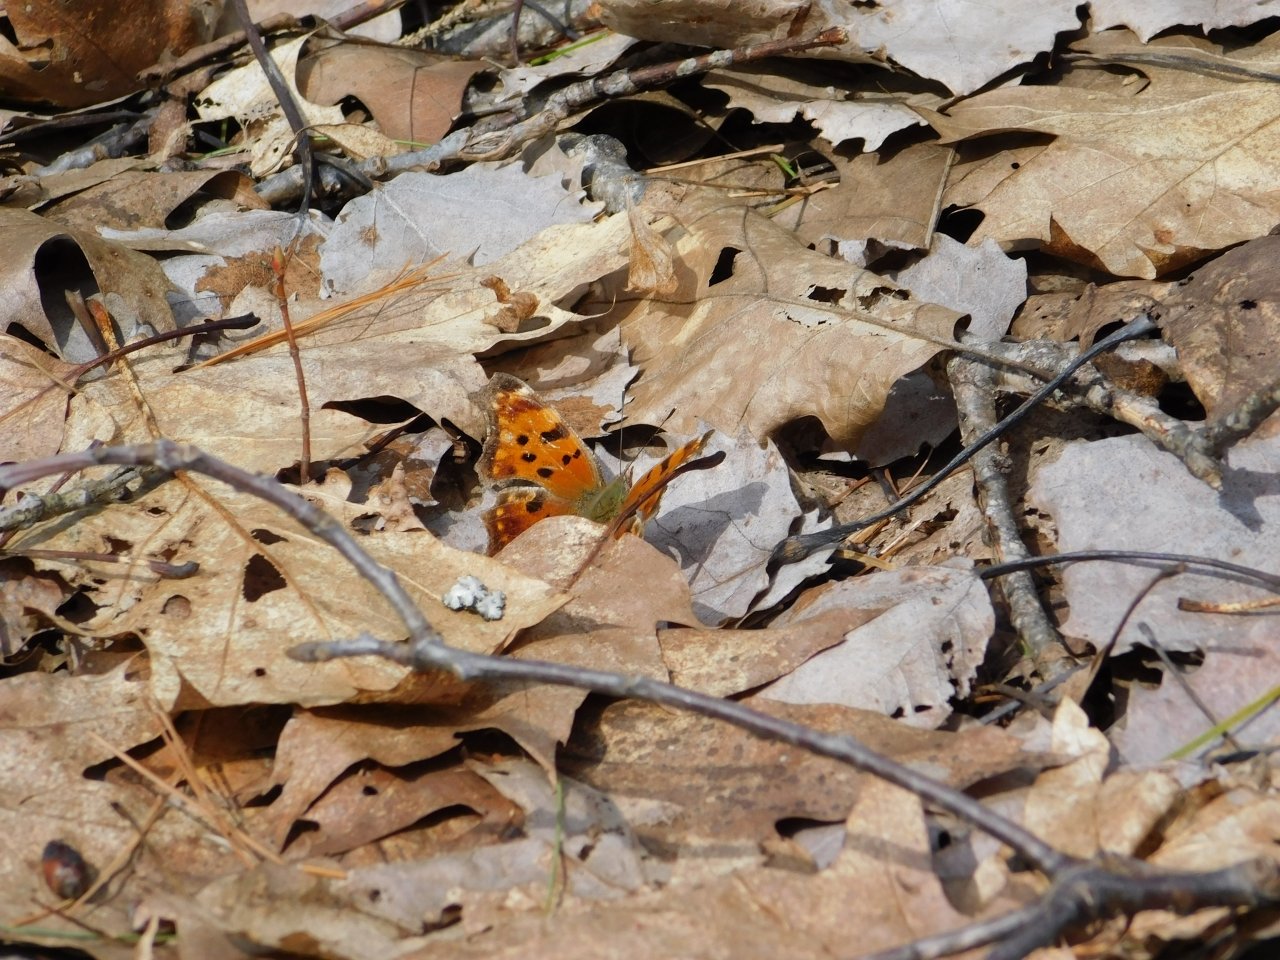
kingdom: Animalia
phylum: Arthropoda
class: Insecta
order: Lepidoptera
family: Nymphalidae
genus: Polygonia
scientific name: Polygonia comma
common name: Eastern Comma
